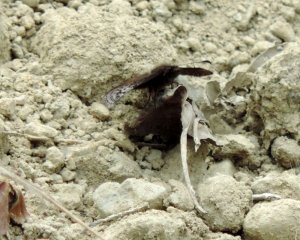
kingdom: Animalia
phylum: Arthropoda
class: Insecta
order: Lepidoptera
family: Hesperiidae
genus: Erynnis
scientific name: Erynnis icelus
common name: Dreamy Duskywing
